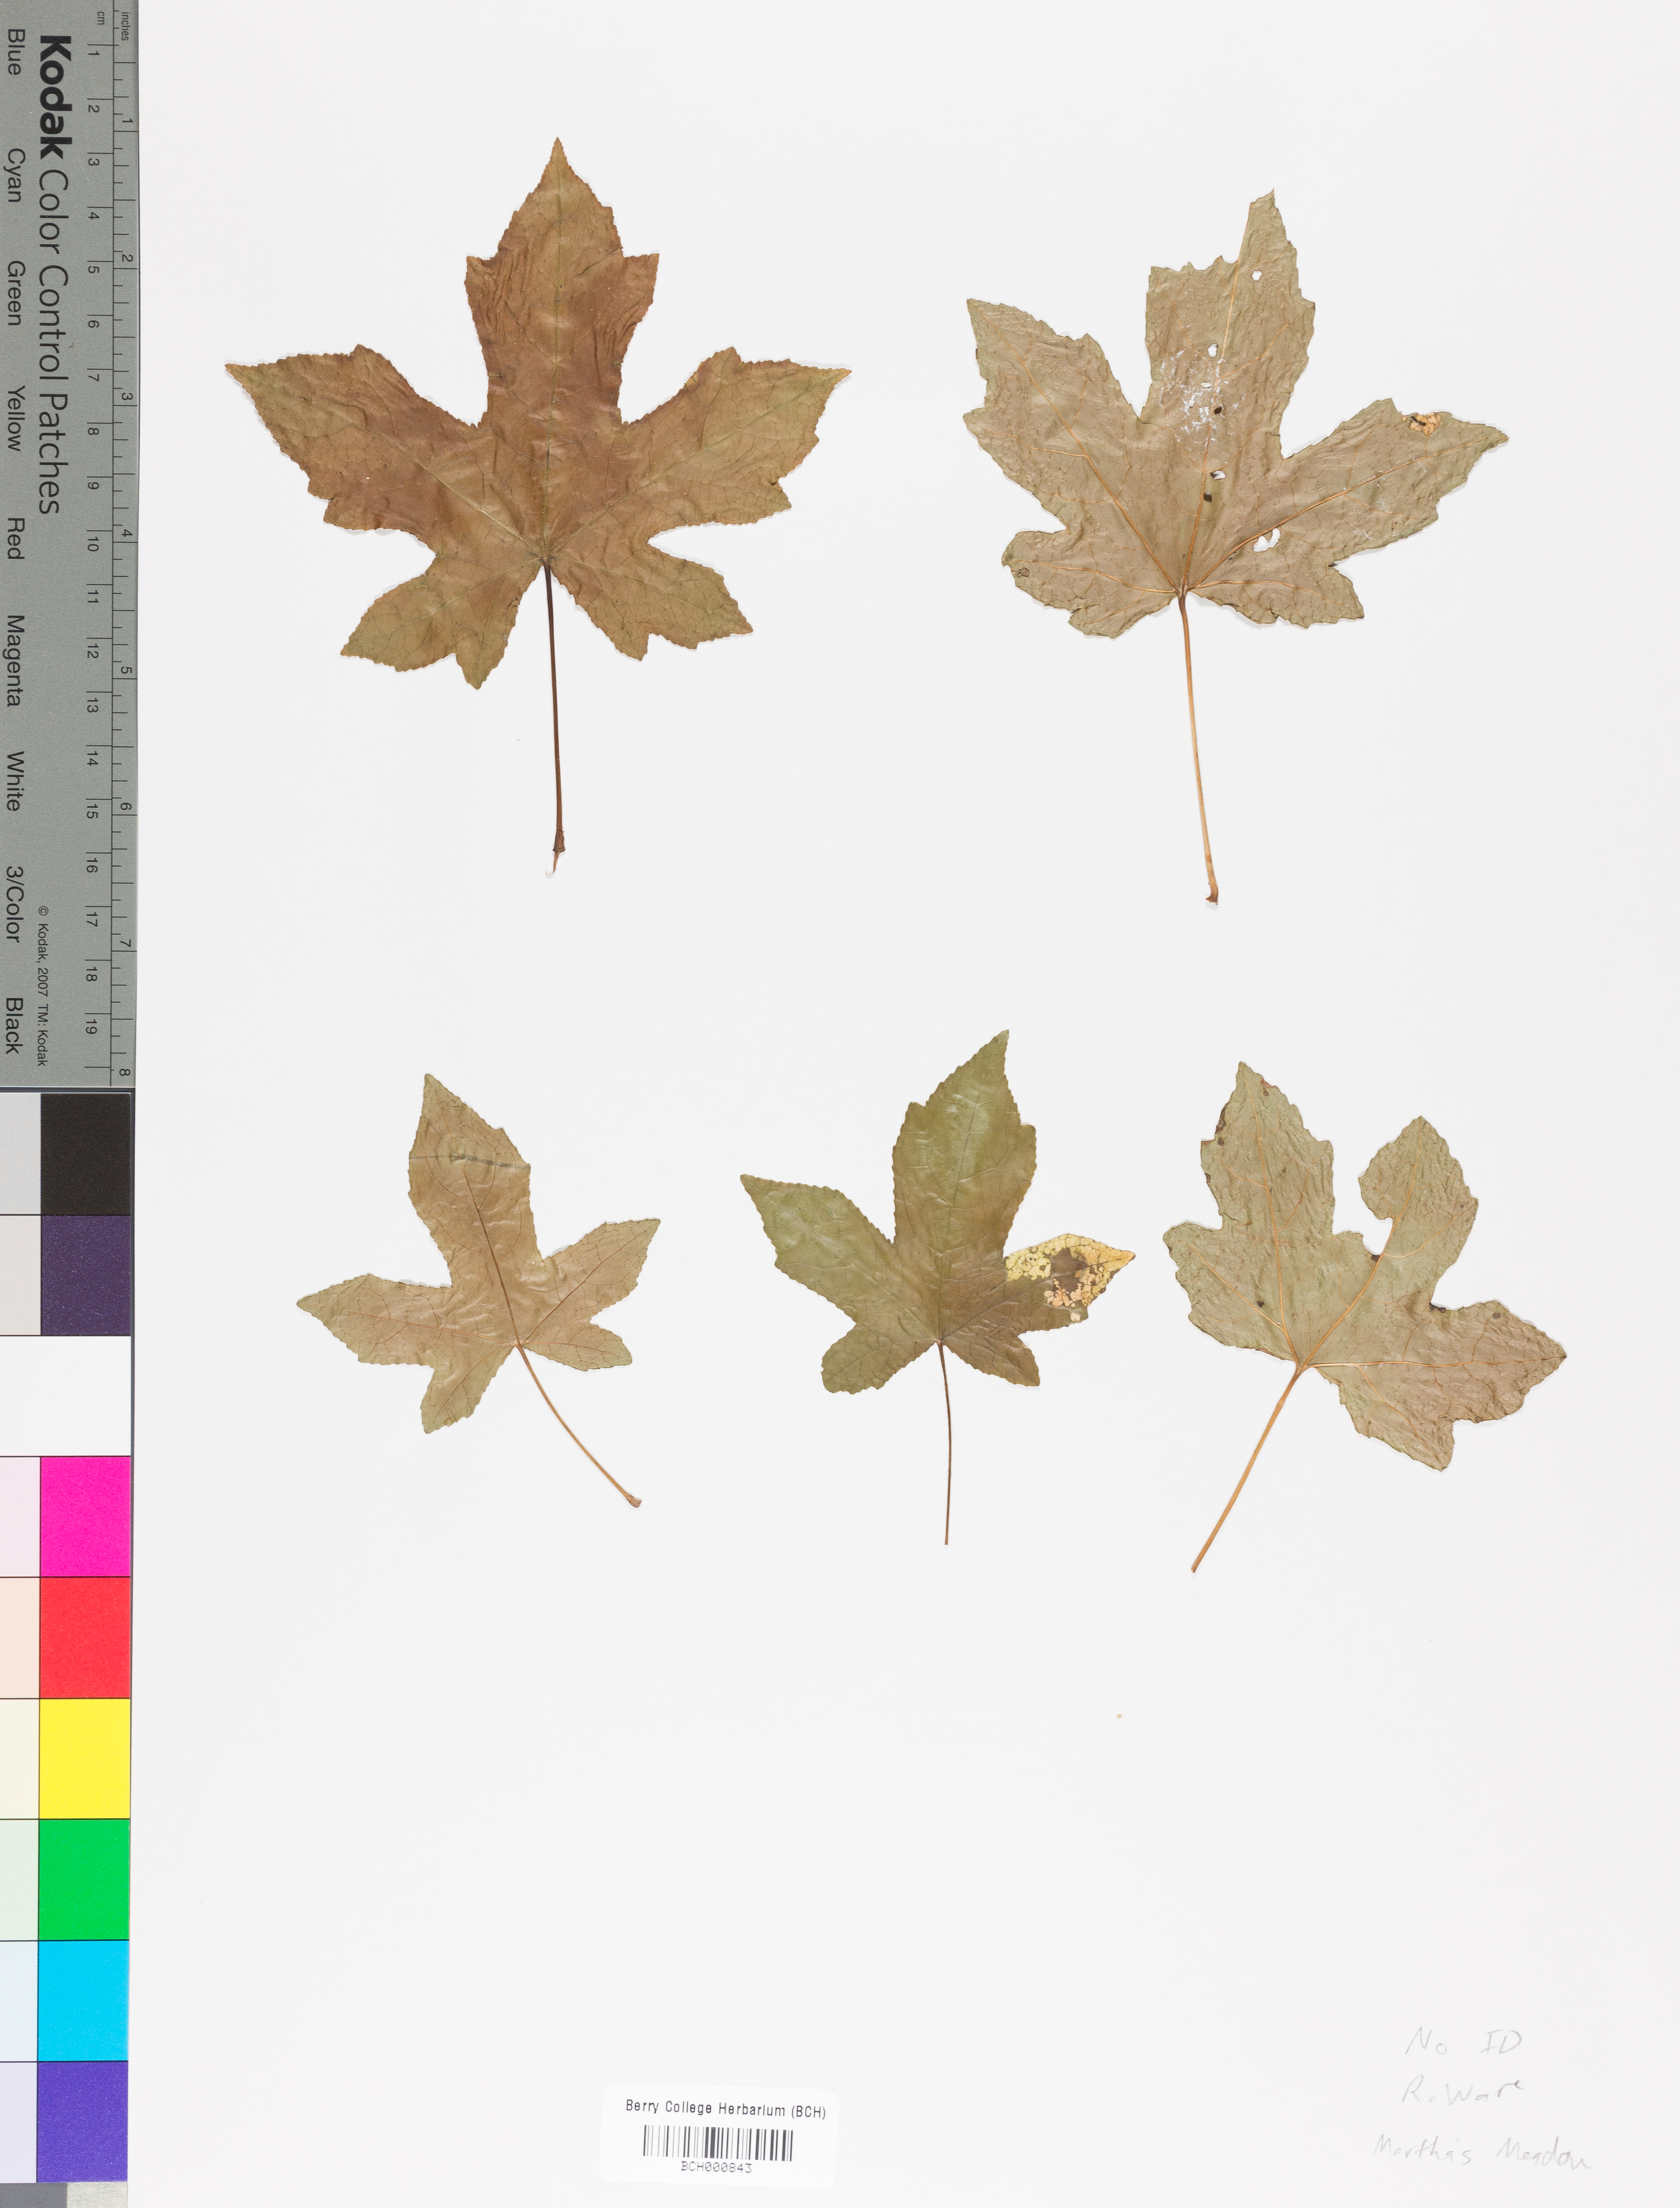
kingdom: Plantae
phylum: Tracheophyta
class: Magnoliopsida
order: Lamiales
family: Acanthaceae
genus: Adhatoda
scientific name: Adhatoda
